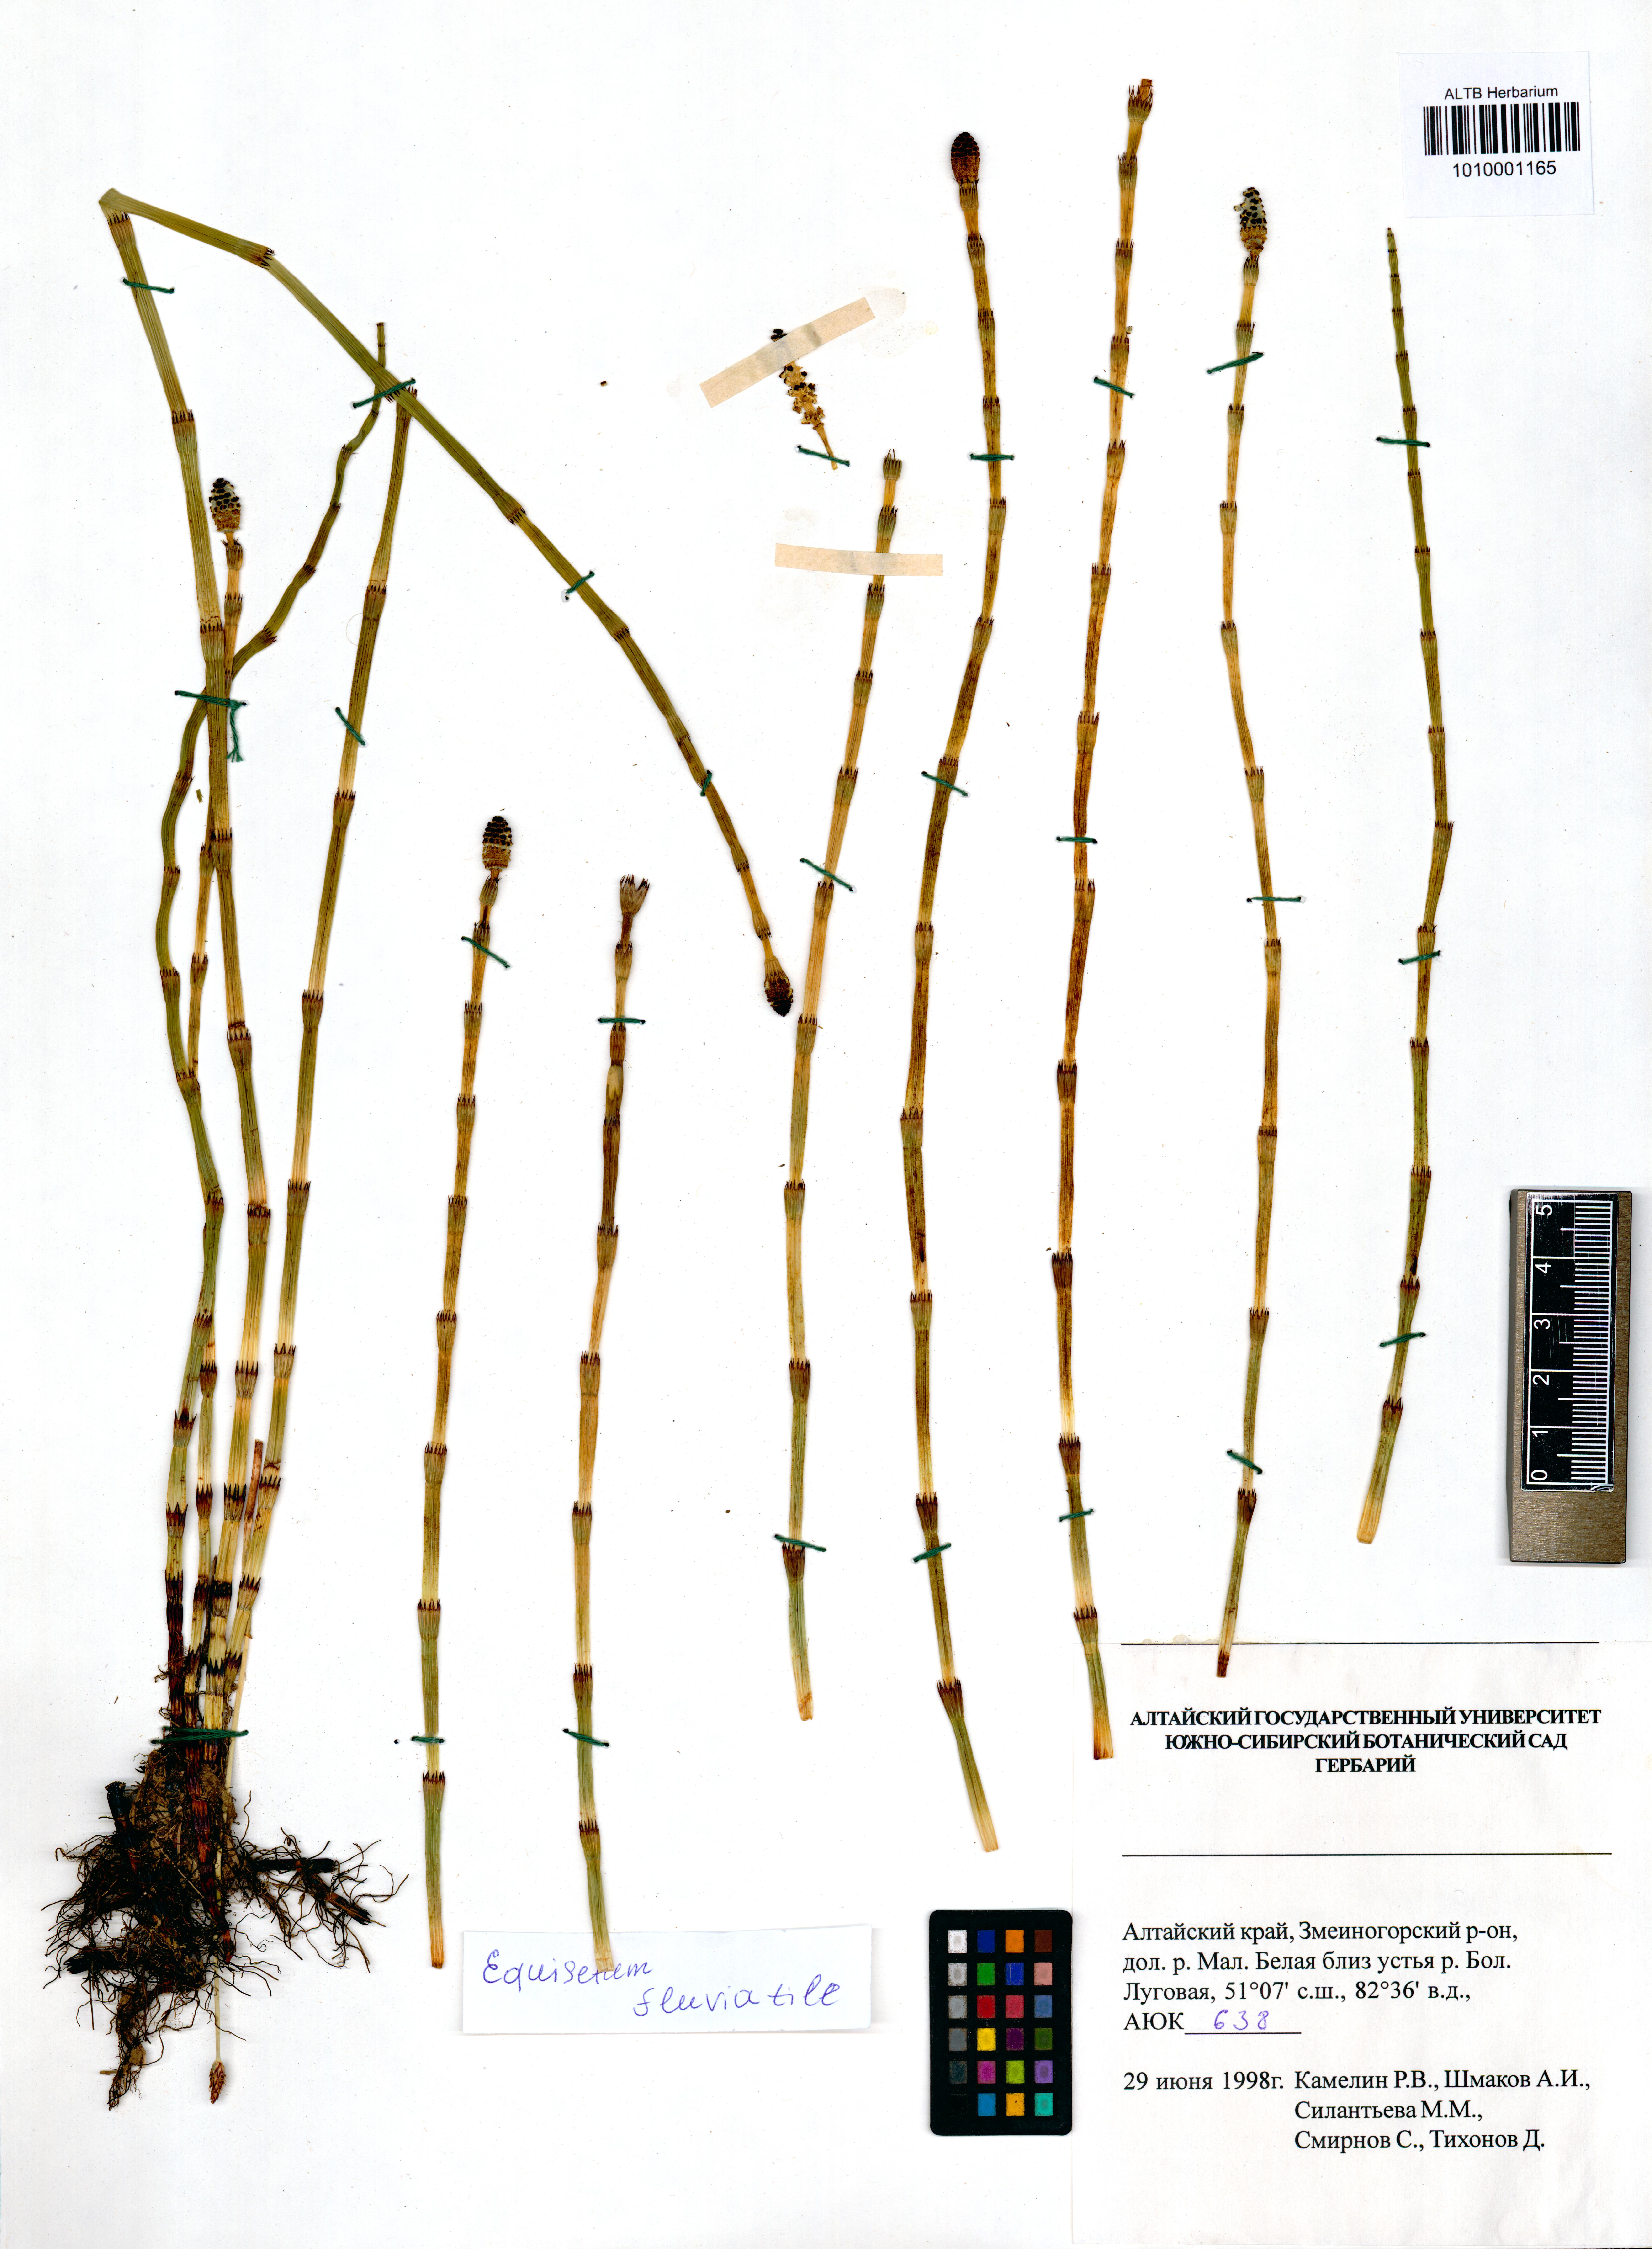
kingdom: Plantae
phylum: Tracheophyta
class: Polypodiopsida
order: Equisetales
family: Equisetaceae
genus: Equisetum
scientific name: Equisetum fluviatile
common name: Water horsetail
